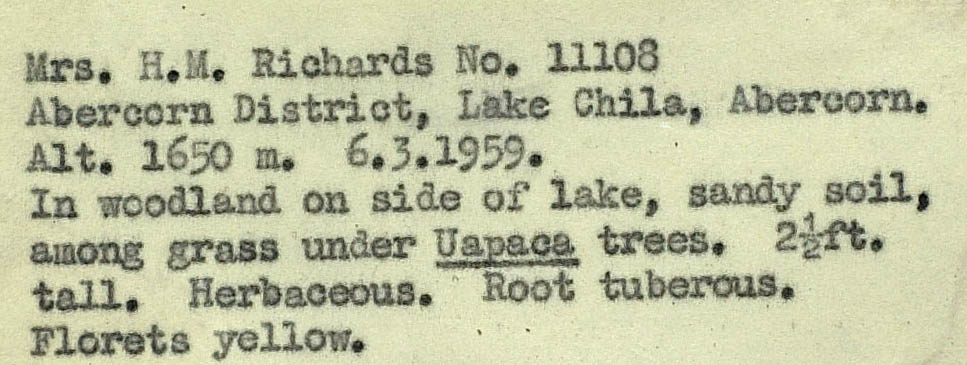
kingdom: Plantae
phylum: Tracheophyta
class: Magnoliopsida
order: Asterales
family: Asteraceae
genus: Lactuca
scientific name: Lactuca zambeziaca
